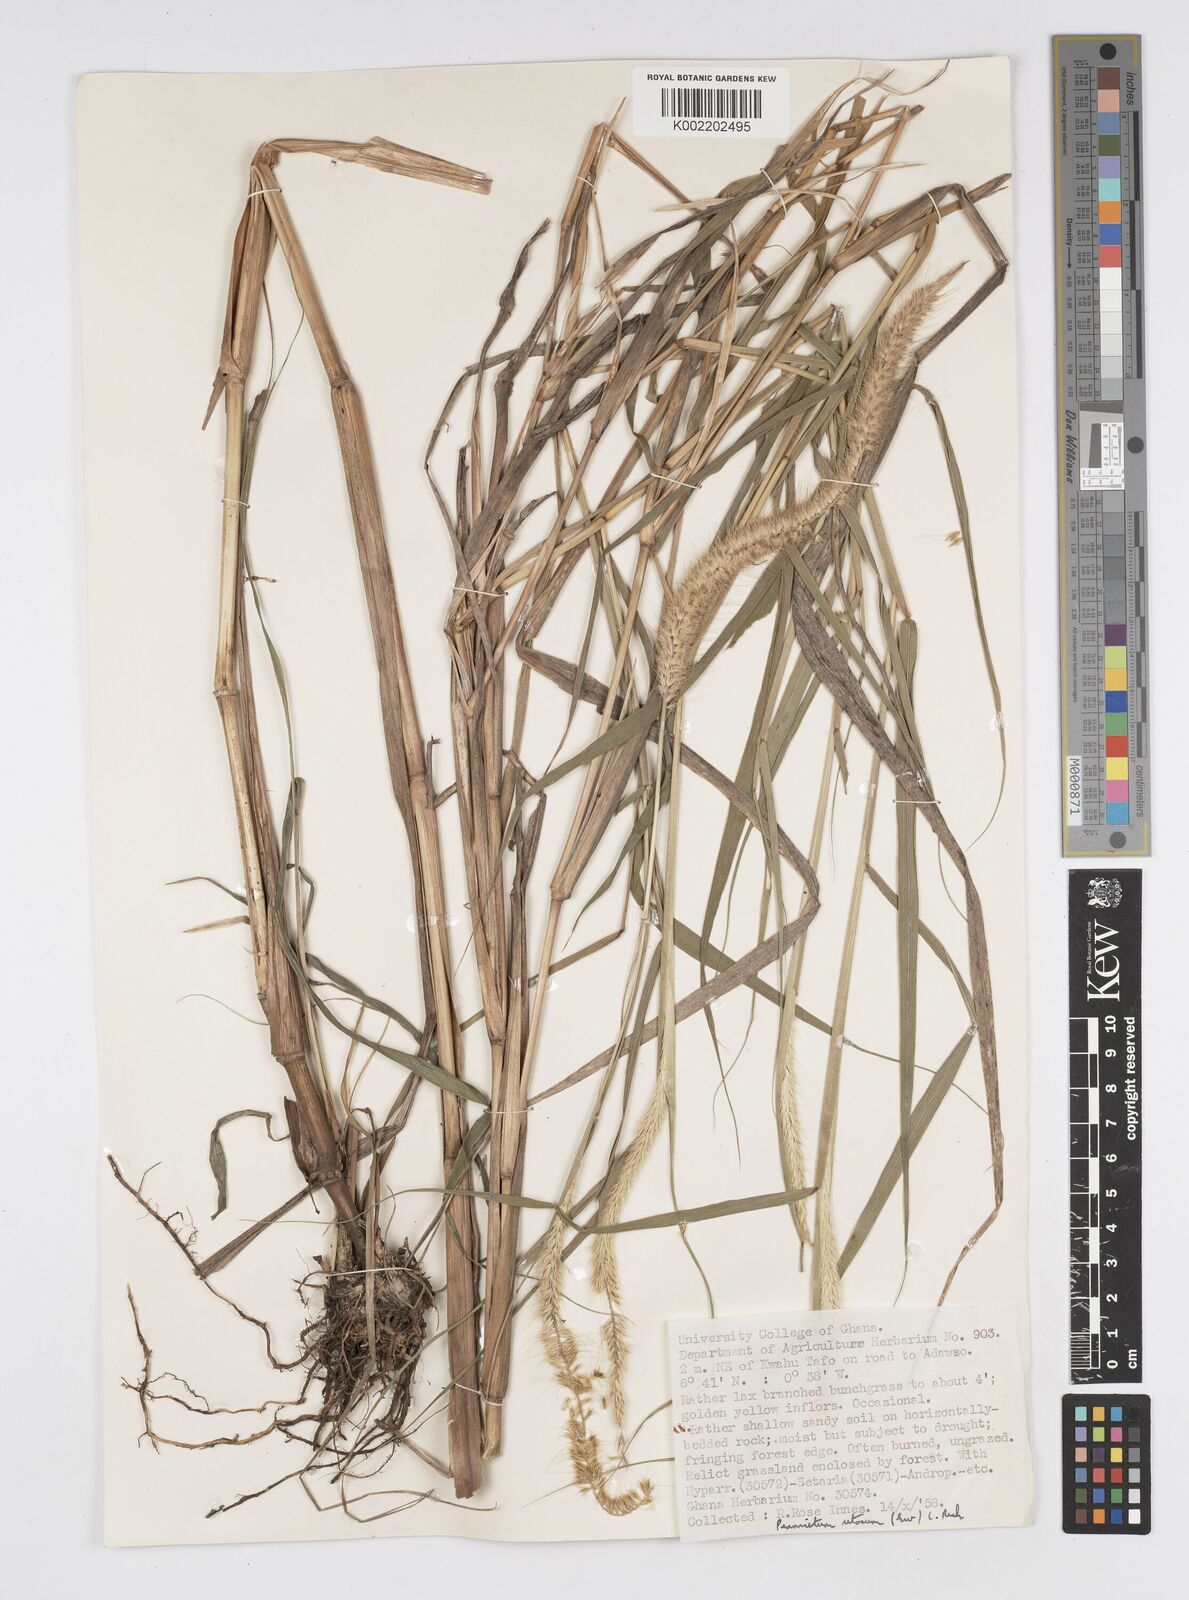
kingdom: Plantae
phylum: Tracheophyta
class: Liliopsida
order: Poales
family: Poaceae
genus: Setaria
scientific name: Setaria parviflora
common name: Knotroot bristle-grass
